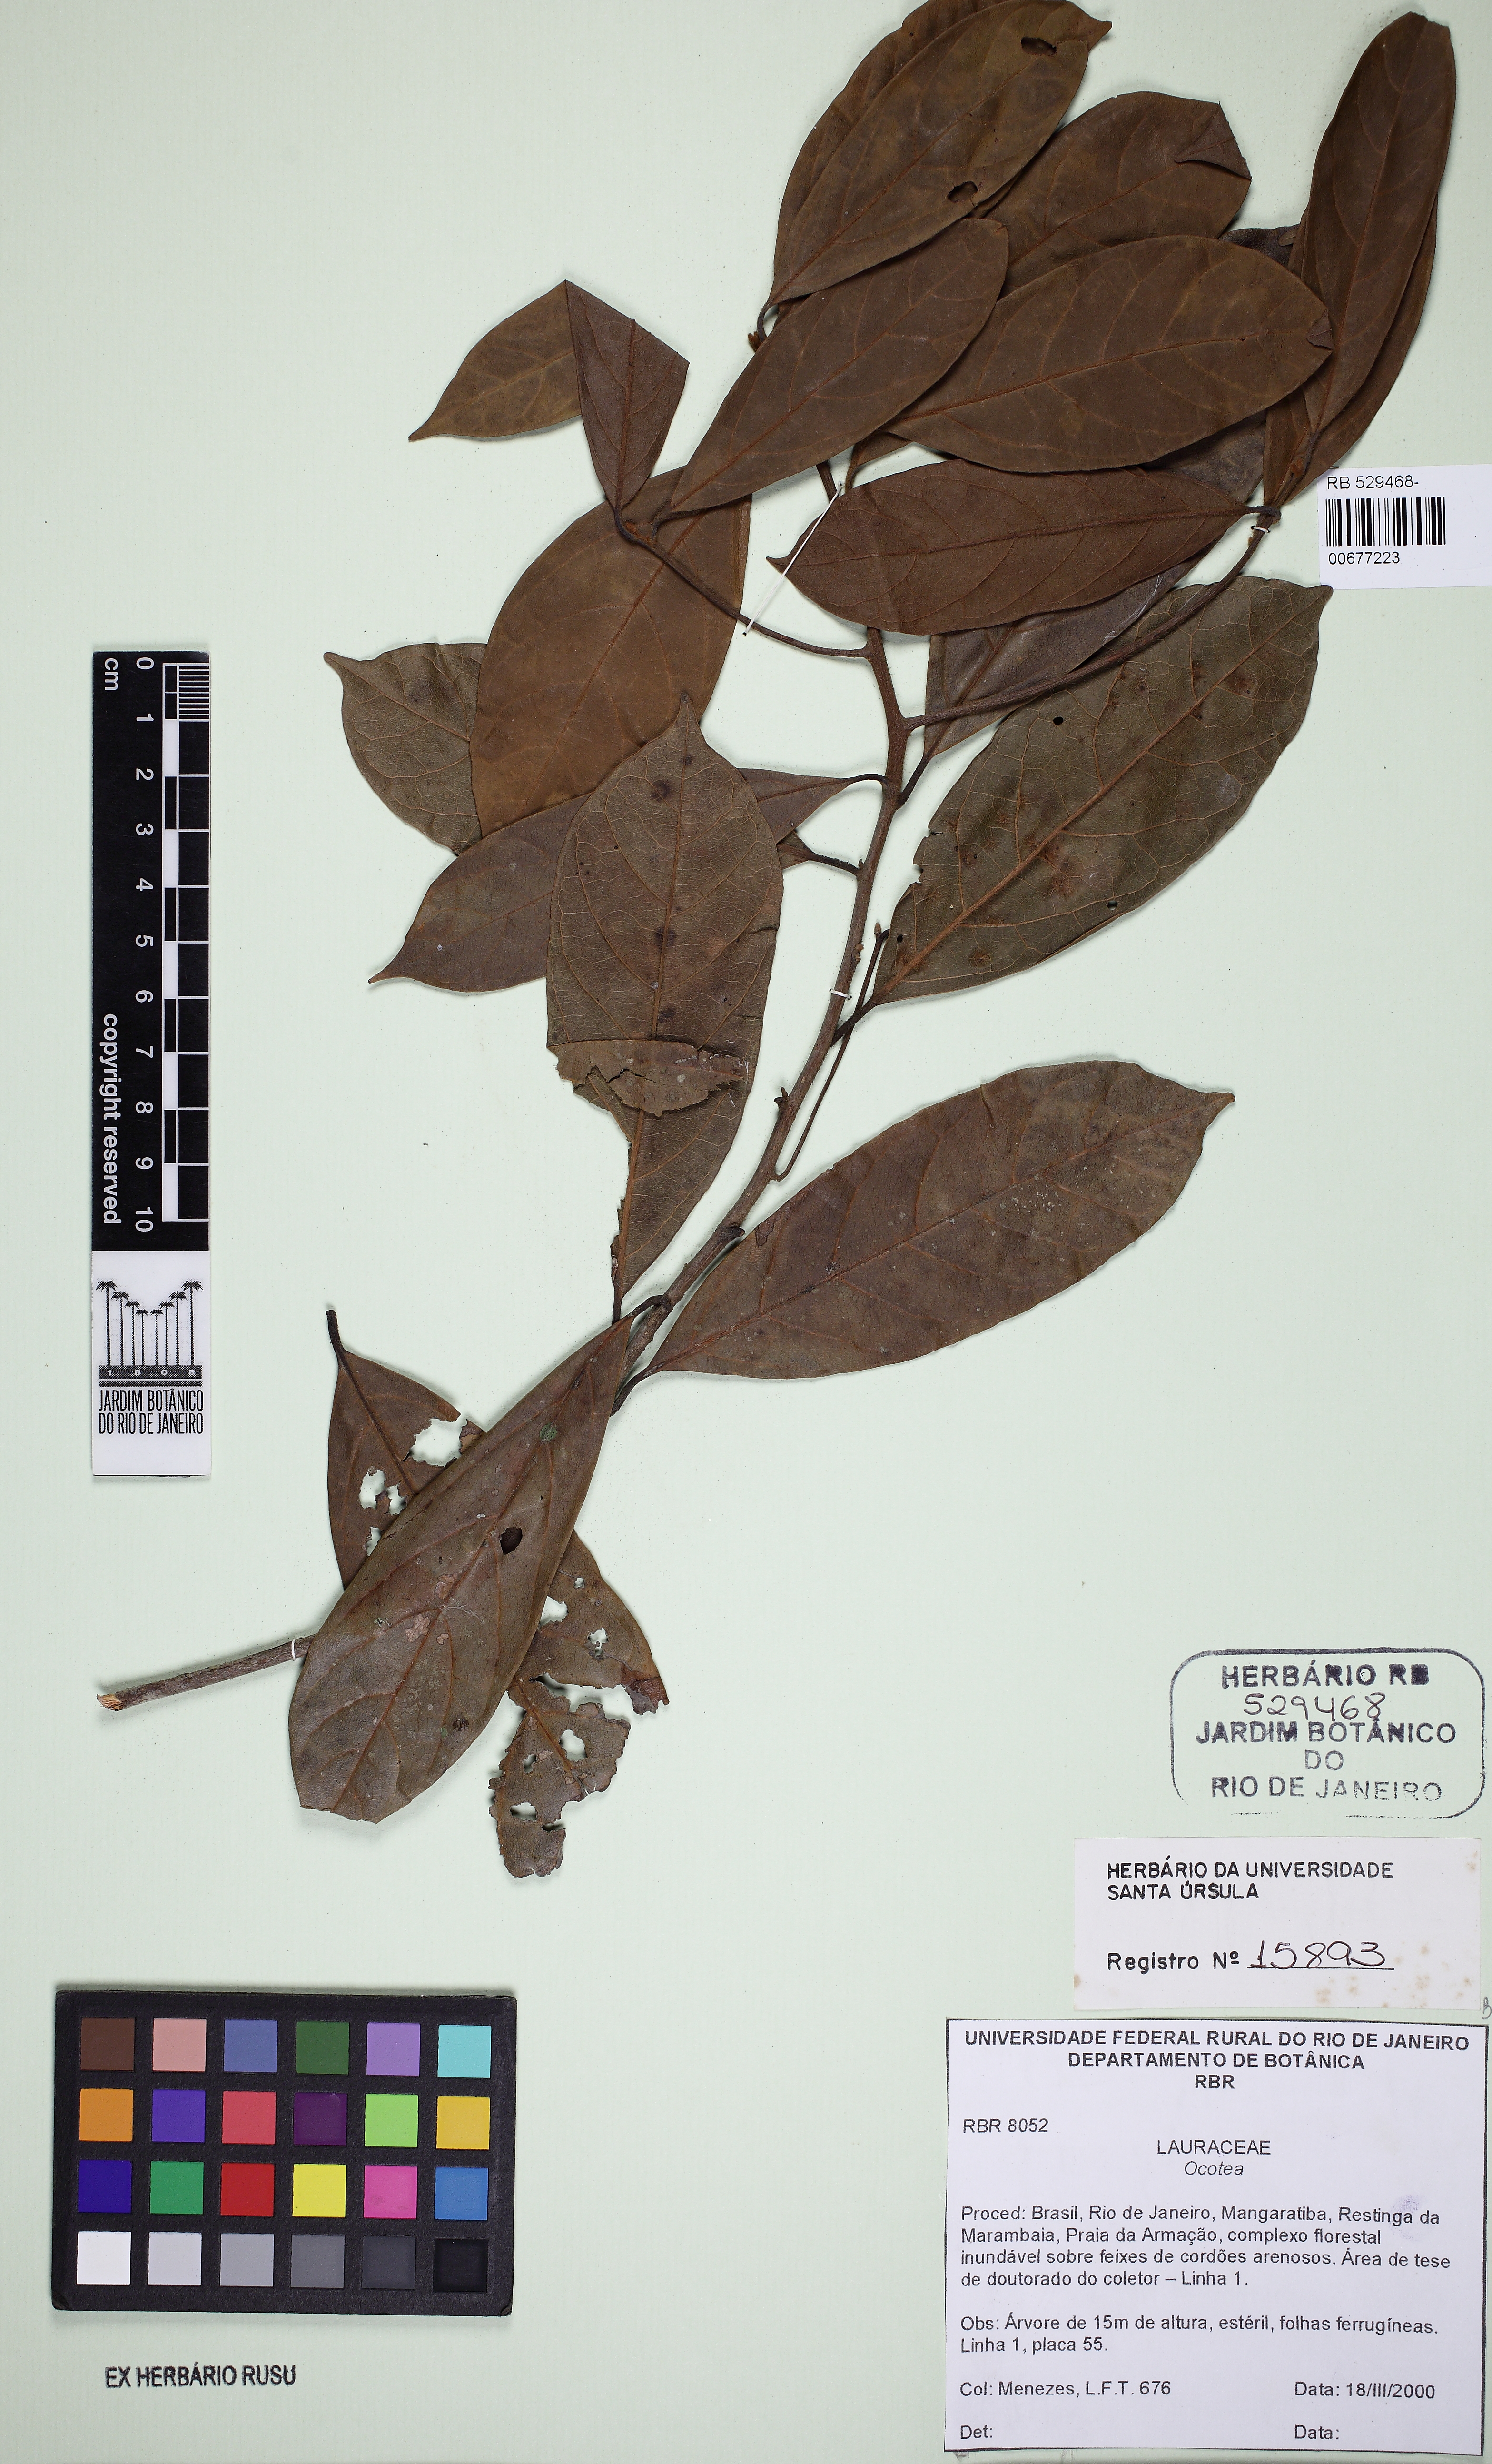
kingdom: Plantae
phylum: Tracheophyta
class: Magnoliopsida
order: Laurales
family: Lauraceae
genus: Ocotea
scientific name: Ocotea
